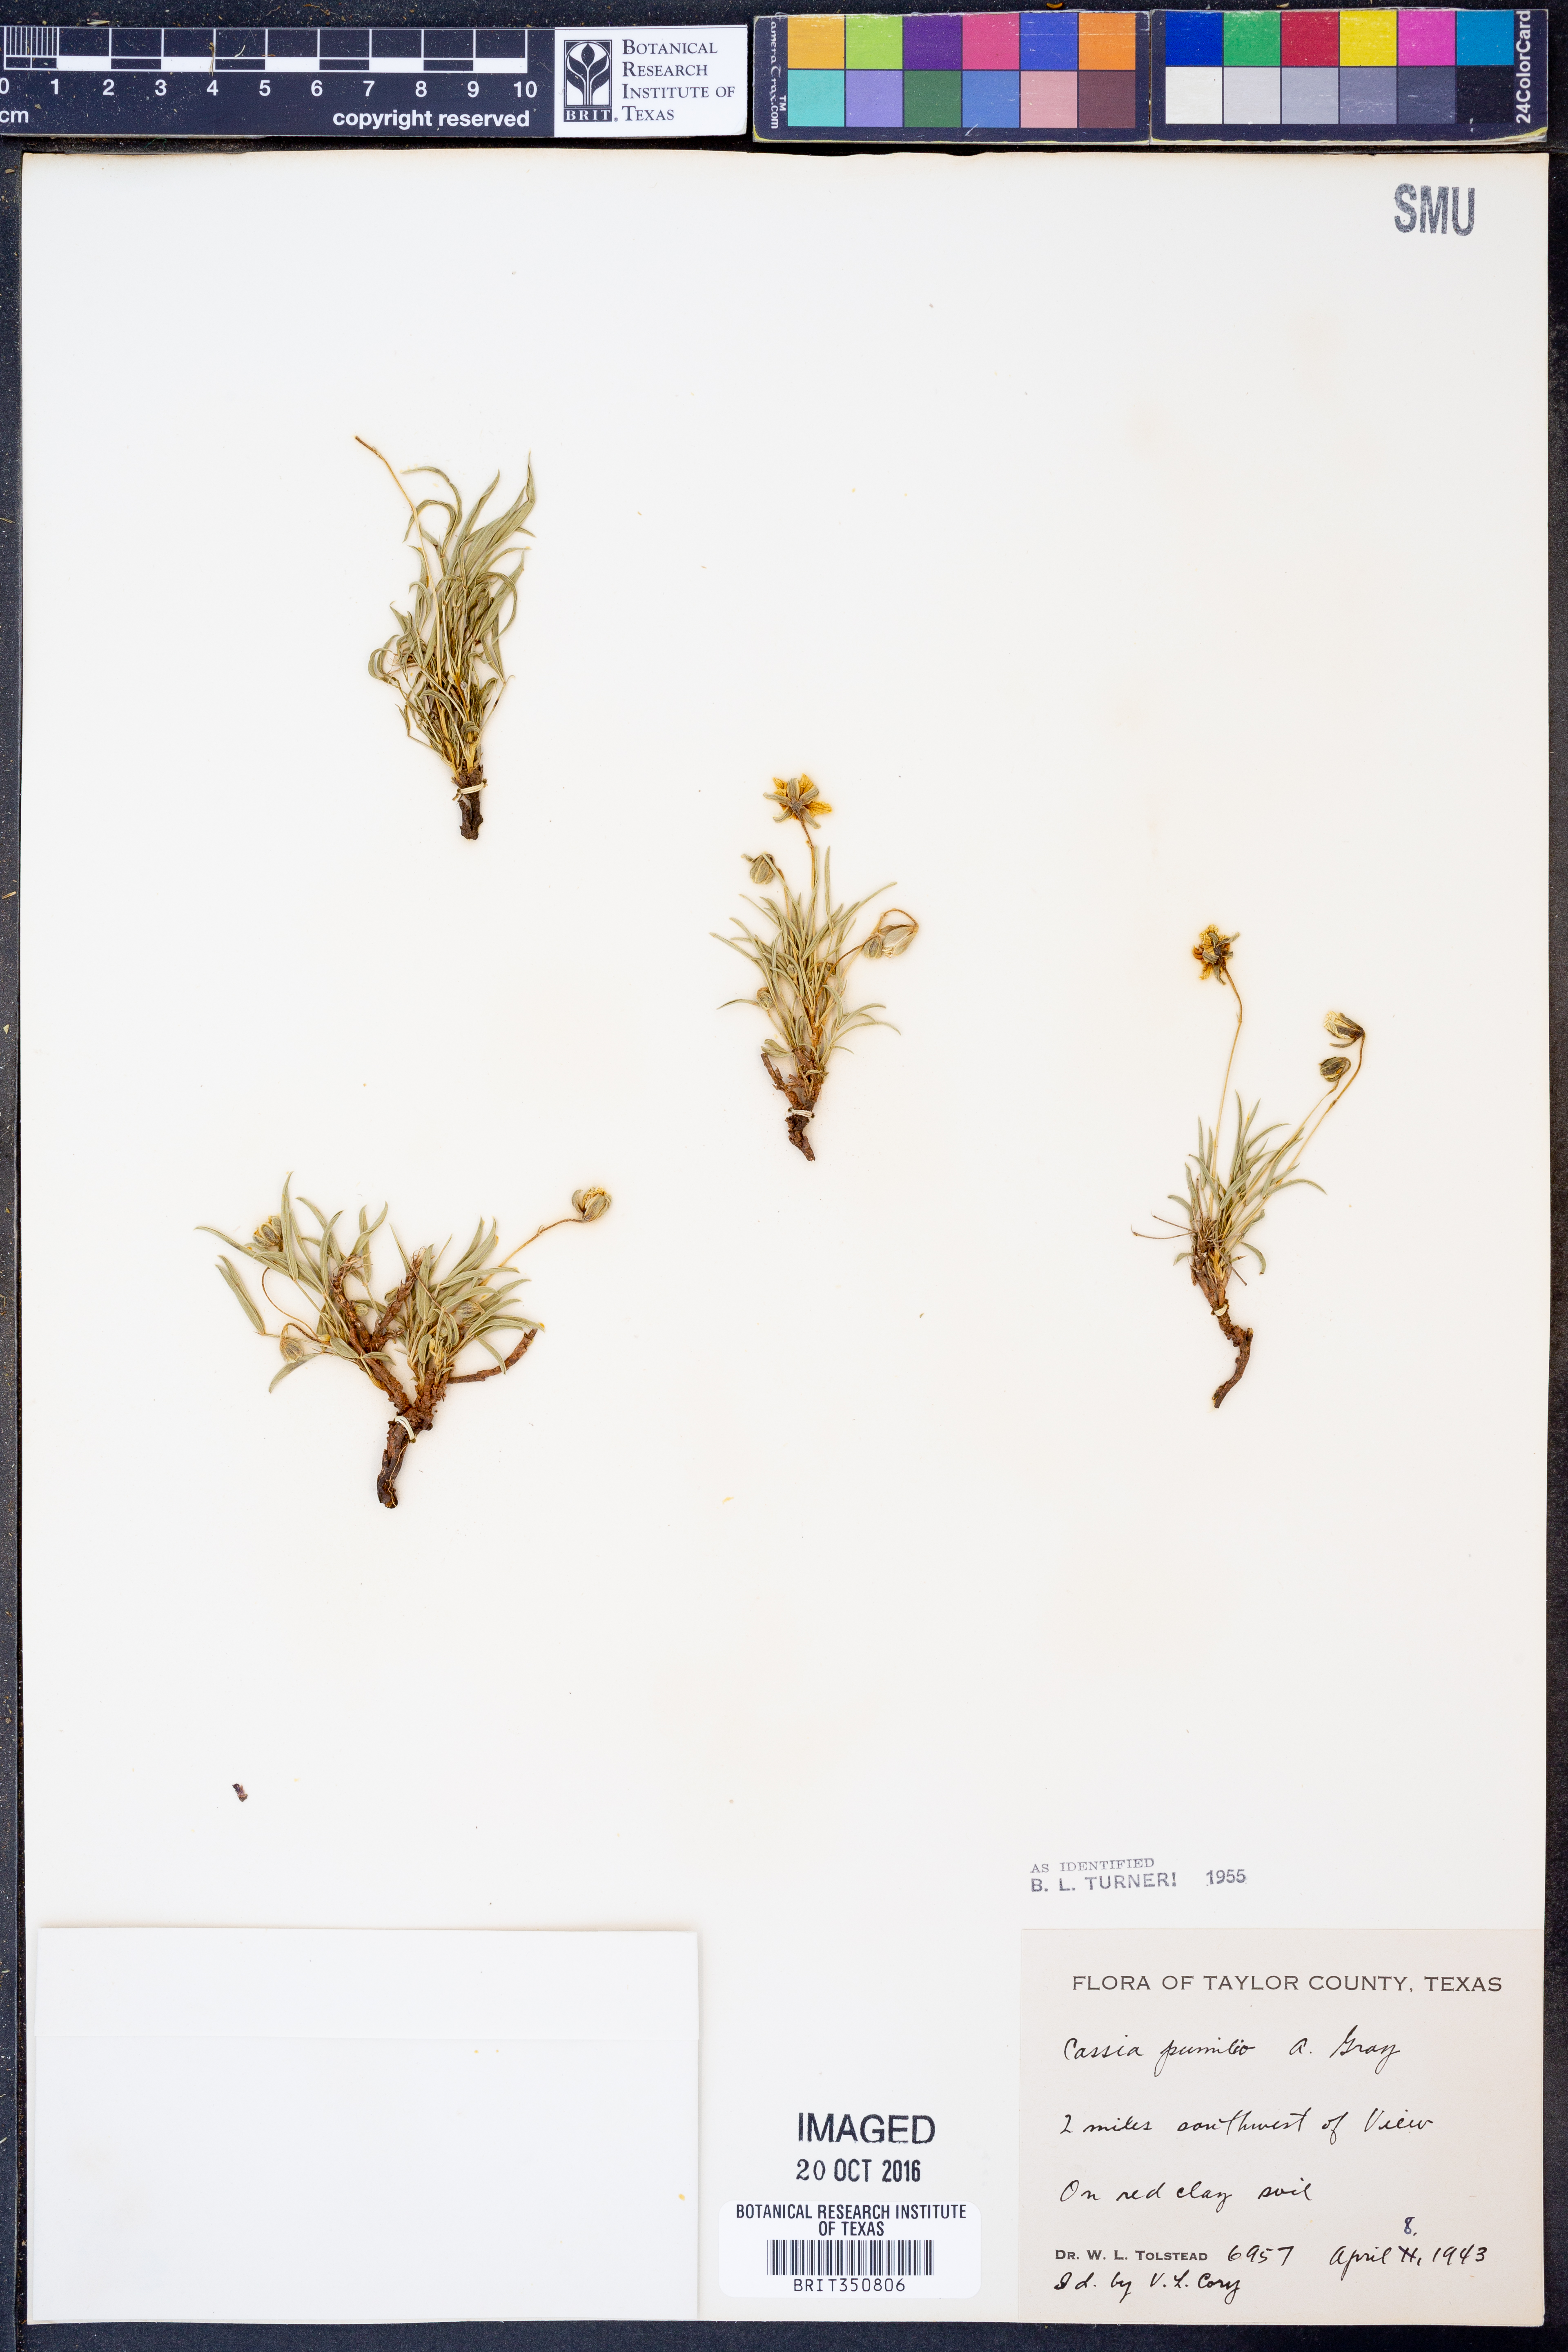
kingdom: Plantae
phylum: Tracheophyta
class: Magnoliopsida
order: Fabales
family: Fabaceae
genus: Senna
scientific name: Senna pumilio
